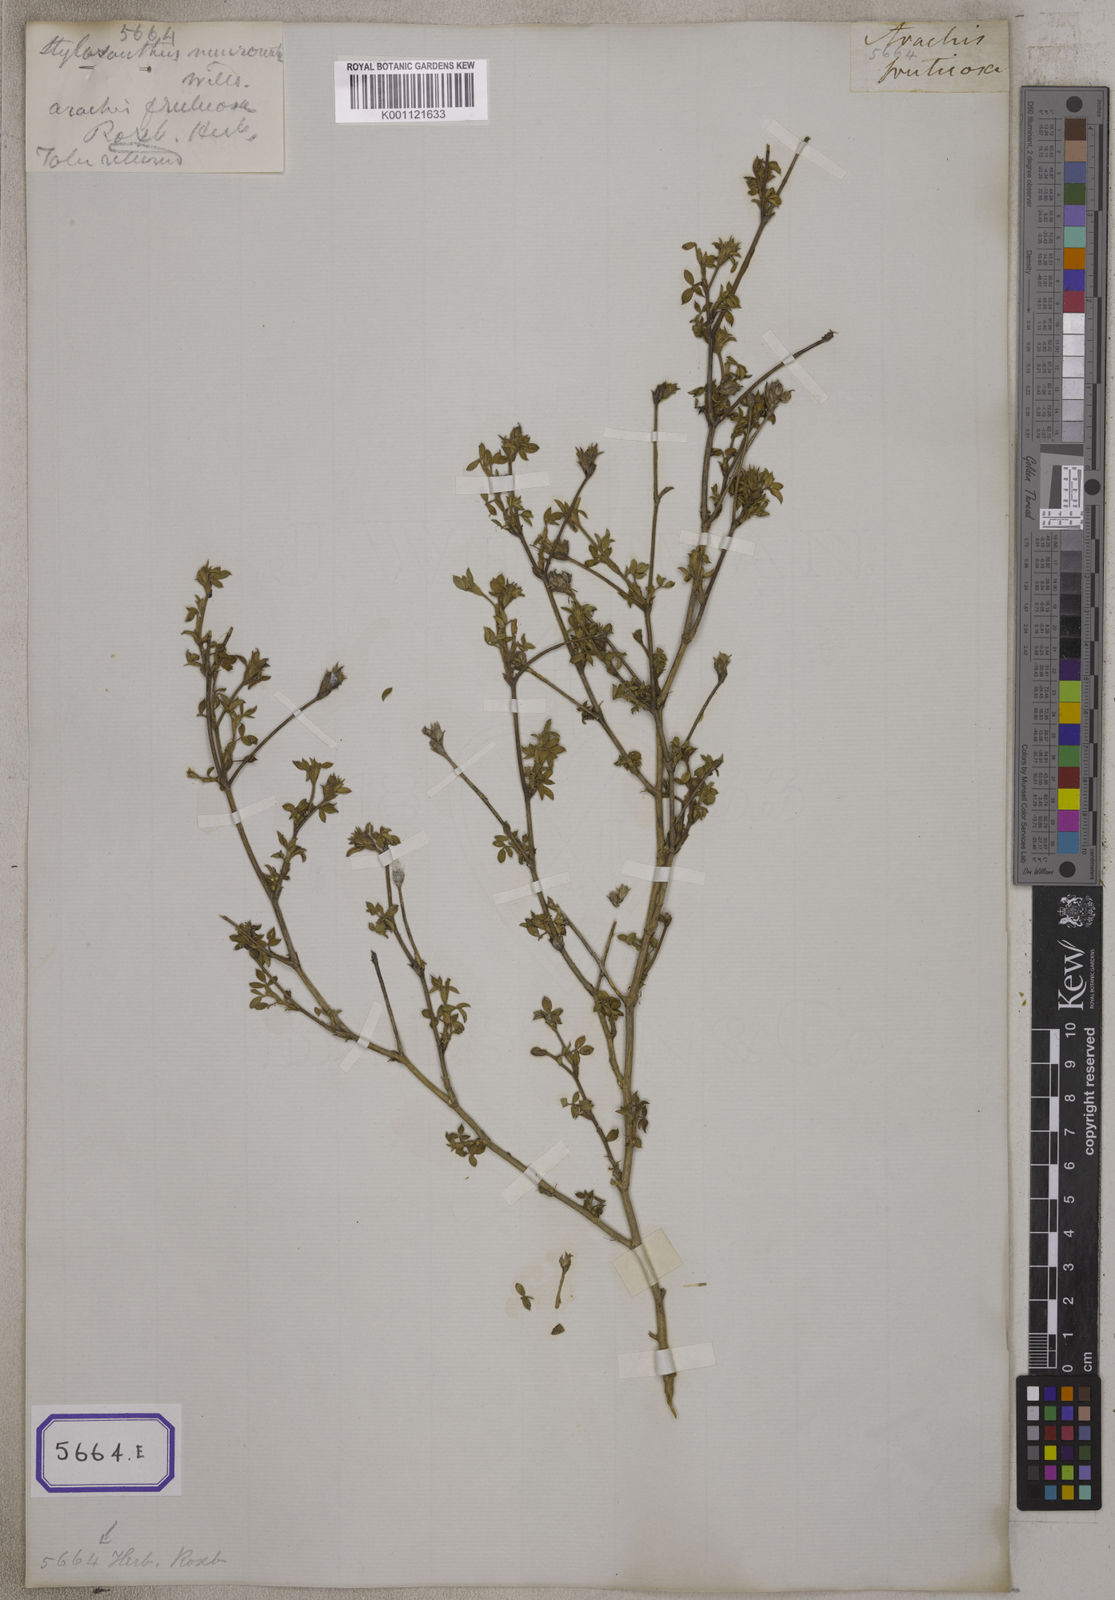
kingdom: Plantae
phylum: Tracheophyta
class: Magnoliopsida
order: Fabales
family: Fabaceae
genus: Stylosanthes
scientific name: Stylosanthes fruticosa
